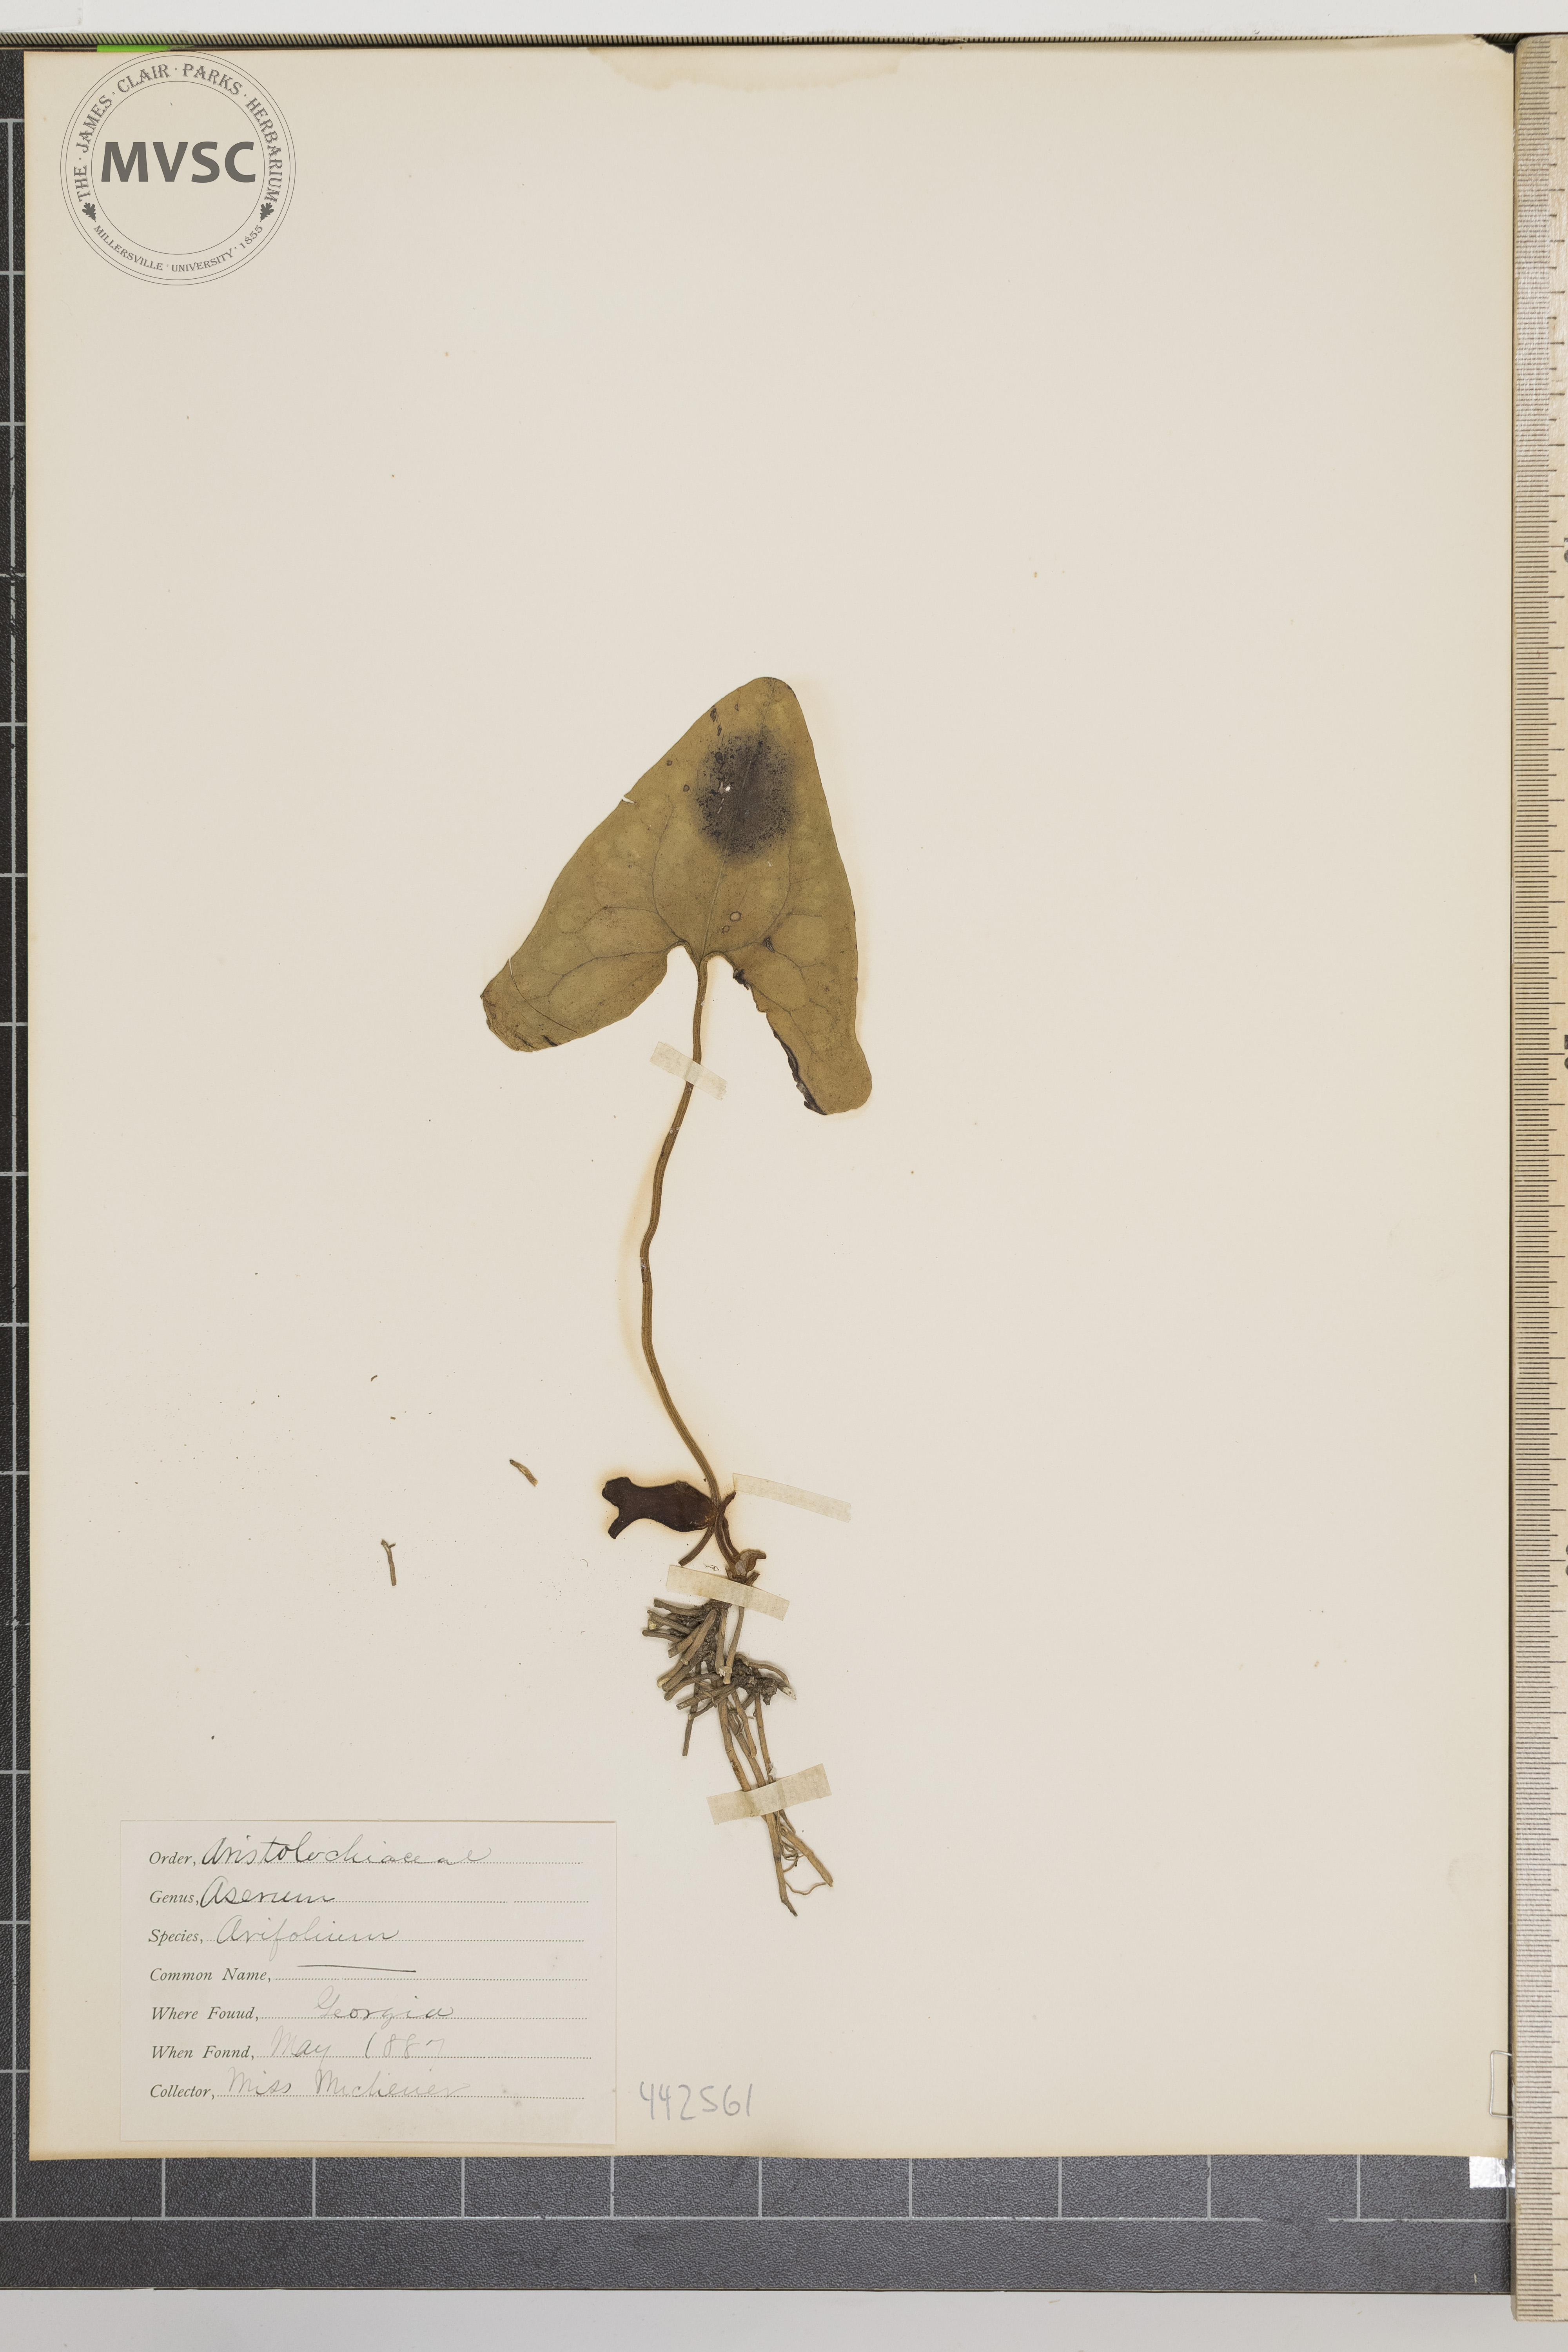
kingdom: Plantae
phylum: Tracheophyta
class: Magnoliopsida
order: Piperales
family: Aristolochiaceae
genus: Hexastylis
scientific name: Hexastylis arifolia
